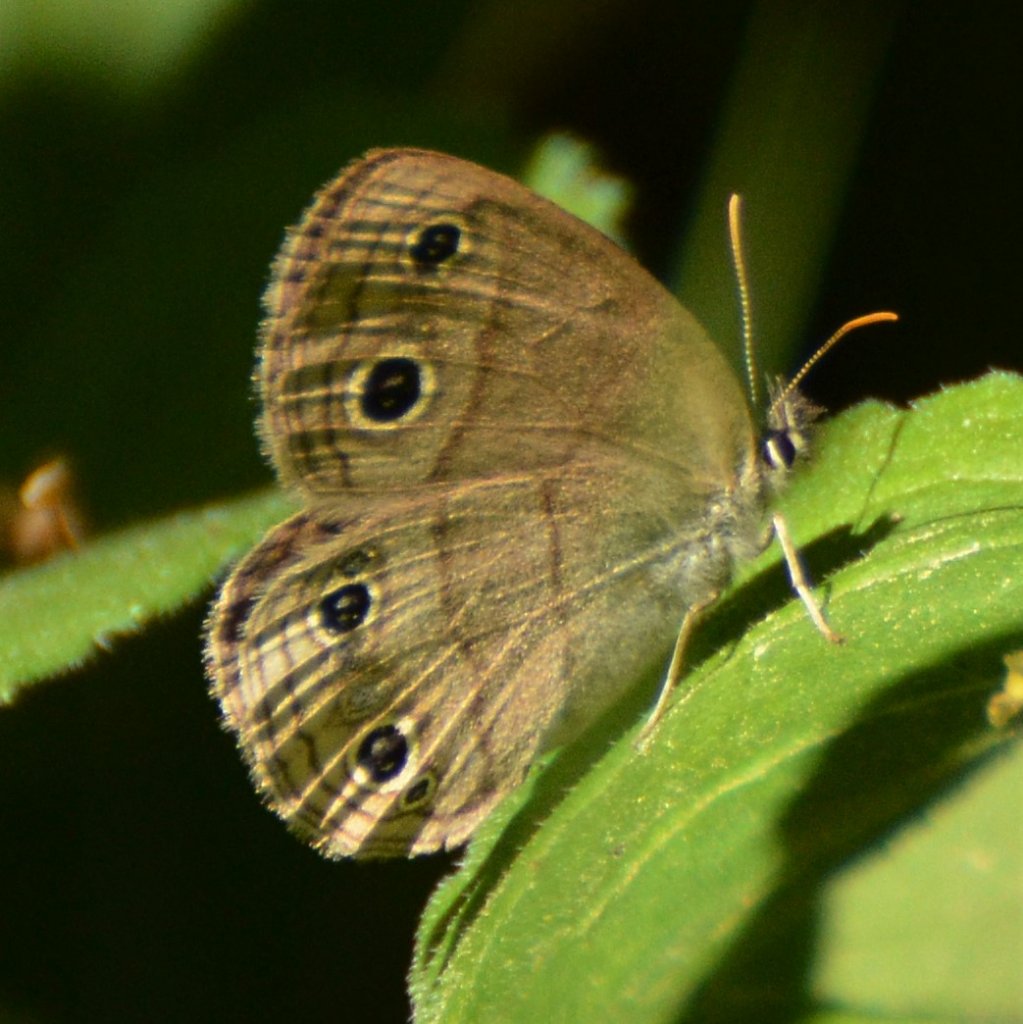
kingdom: Animalia
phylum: Arthropoda
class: Insecta
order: Lepidoptera
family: Nymphalidae
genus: Euptychia
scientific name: Euptychia cymela
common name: Little Wood Satyr
